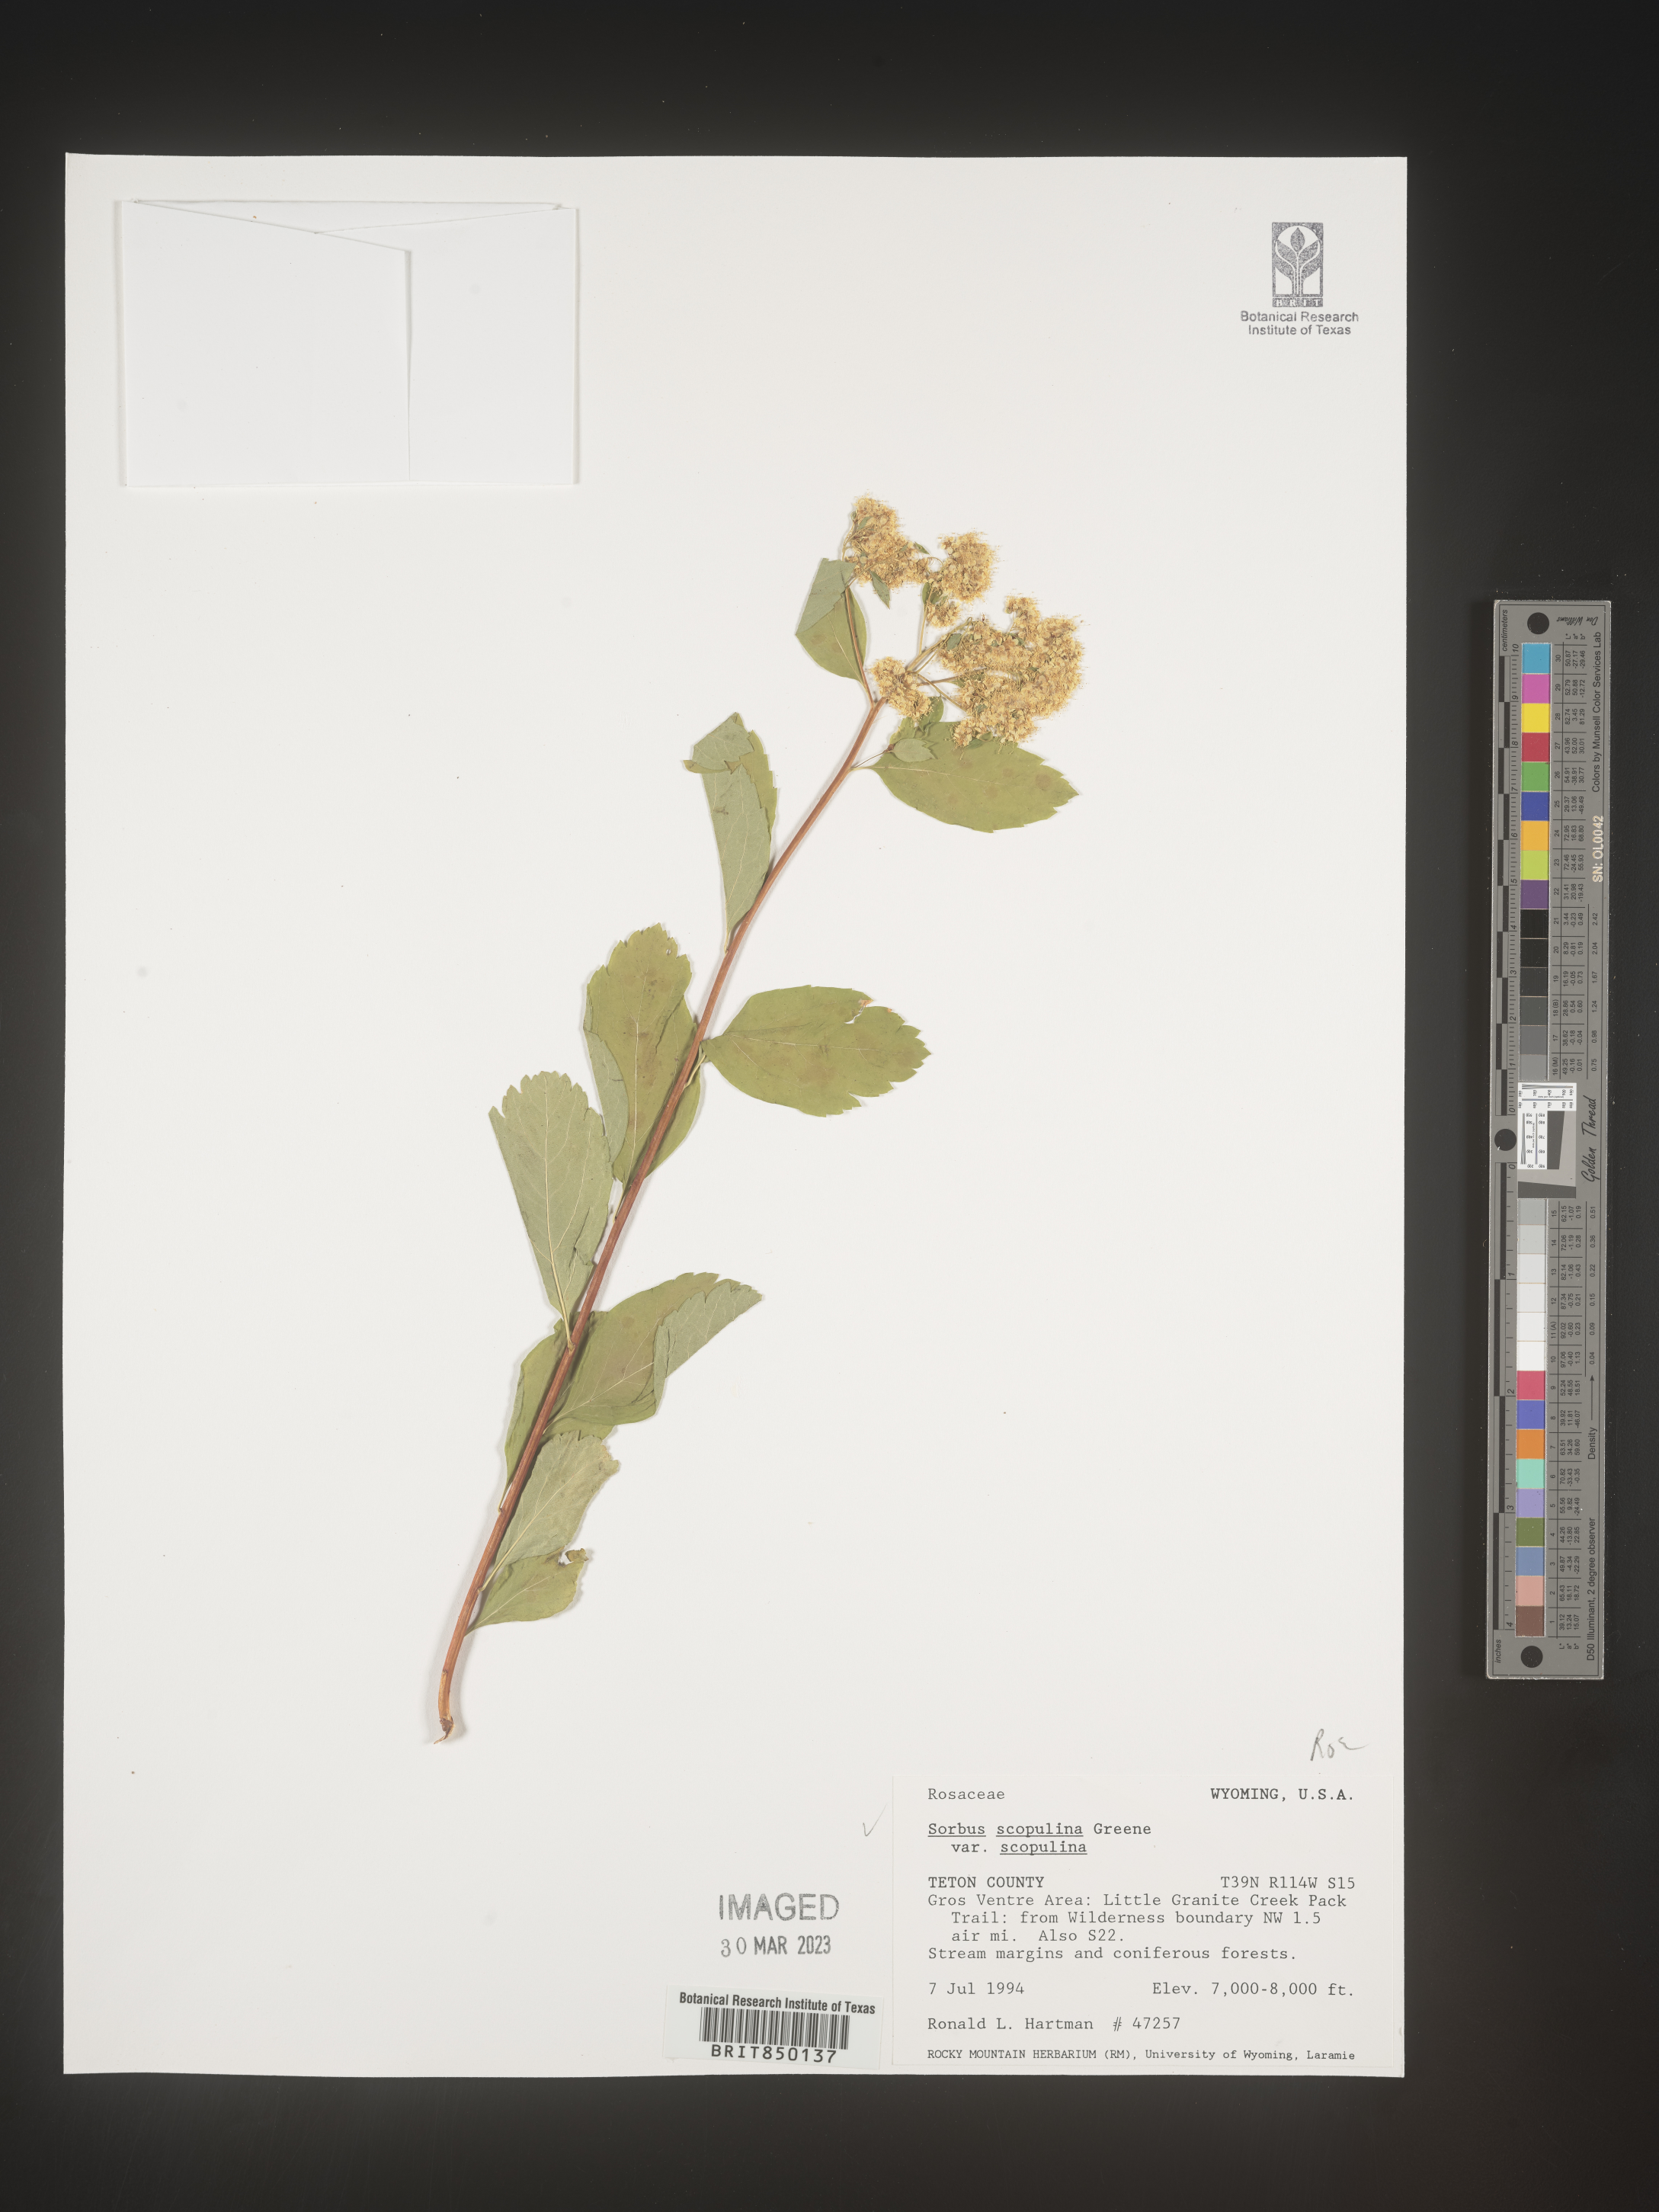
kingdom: Plantae
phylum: Tracheophyta
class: Magnoliopsida
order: Rosales
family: Rosaceae
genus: Sorbus
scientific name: Sorbus scopulina
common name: Greene's mountain-ash
